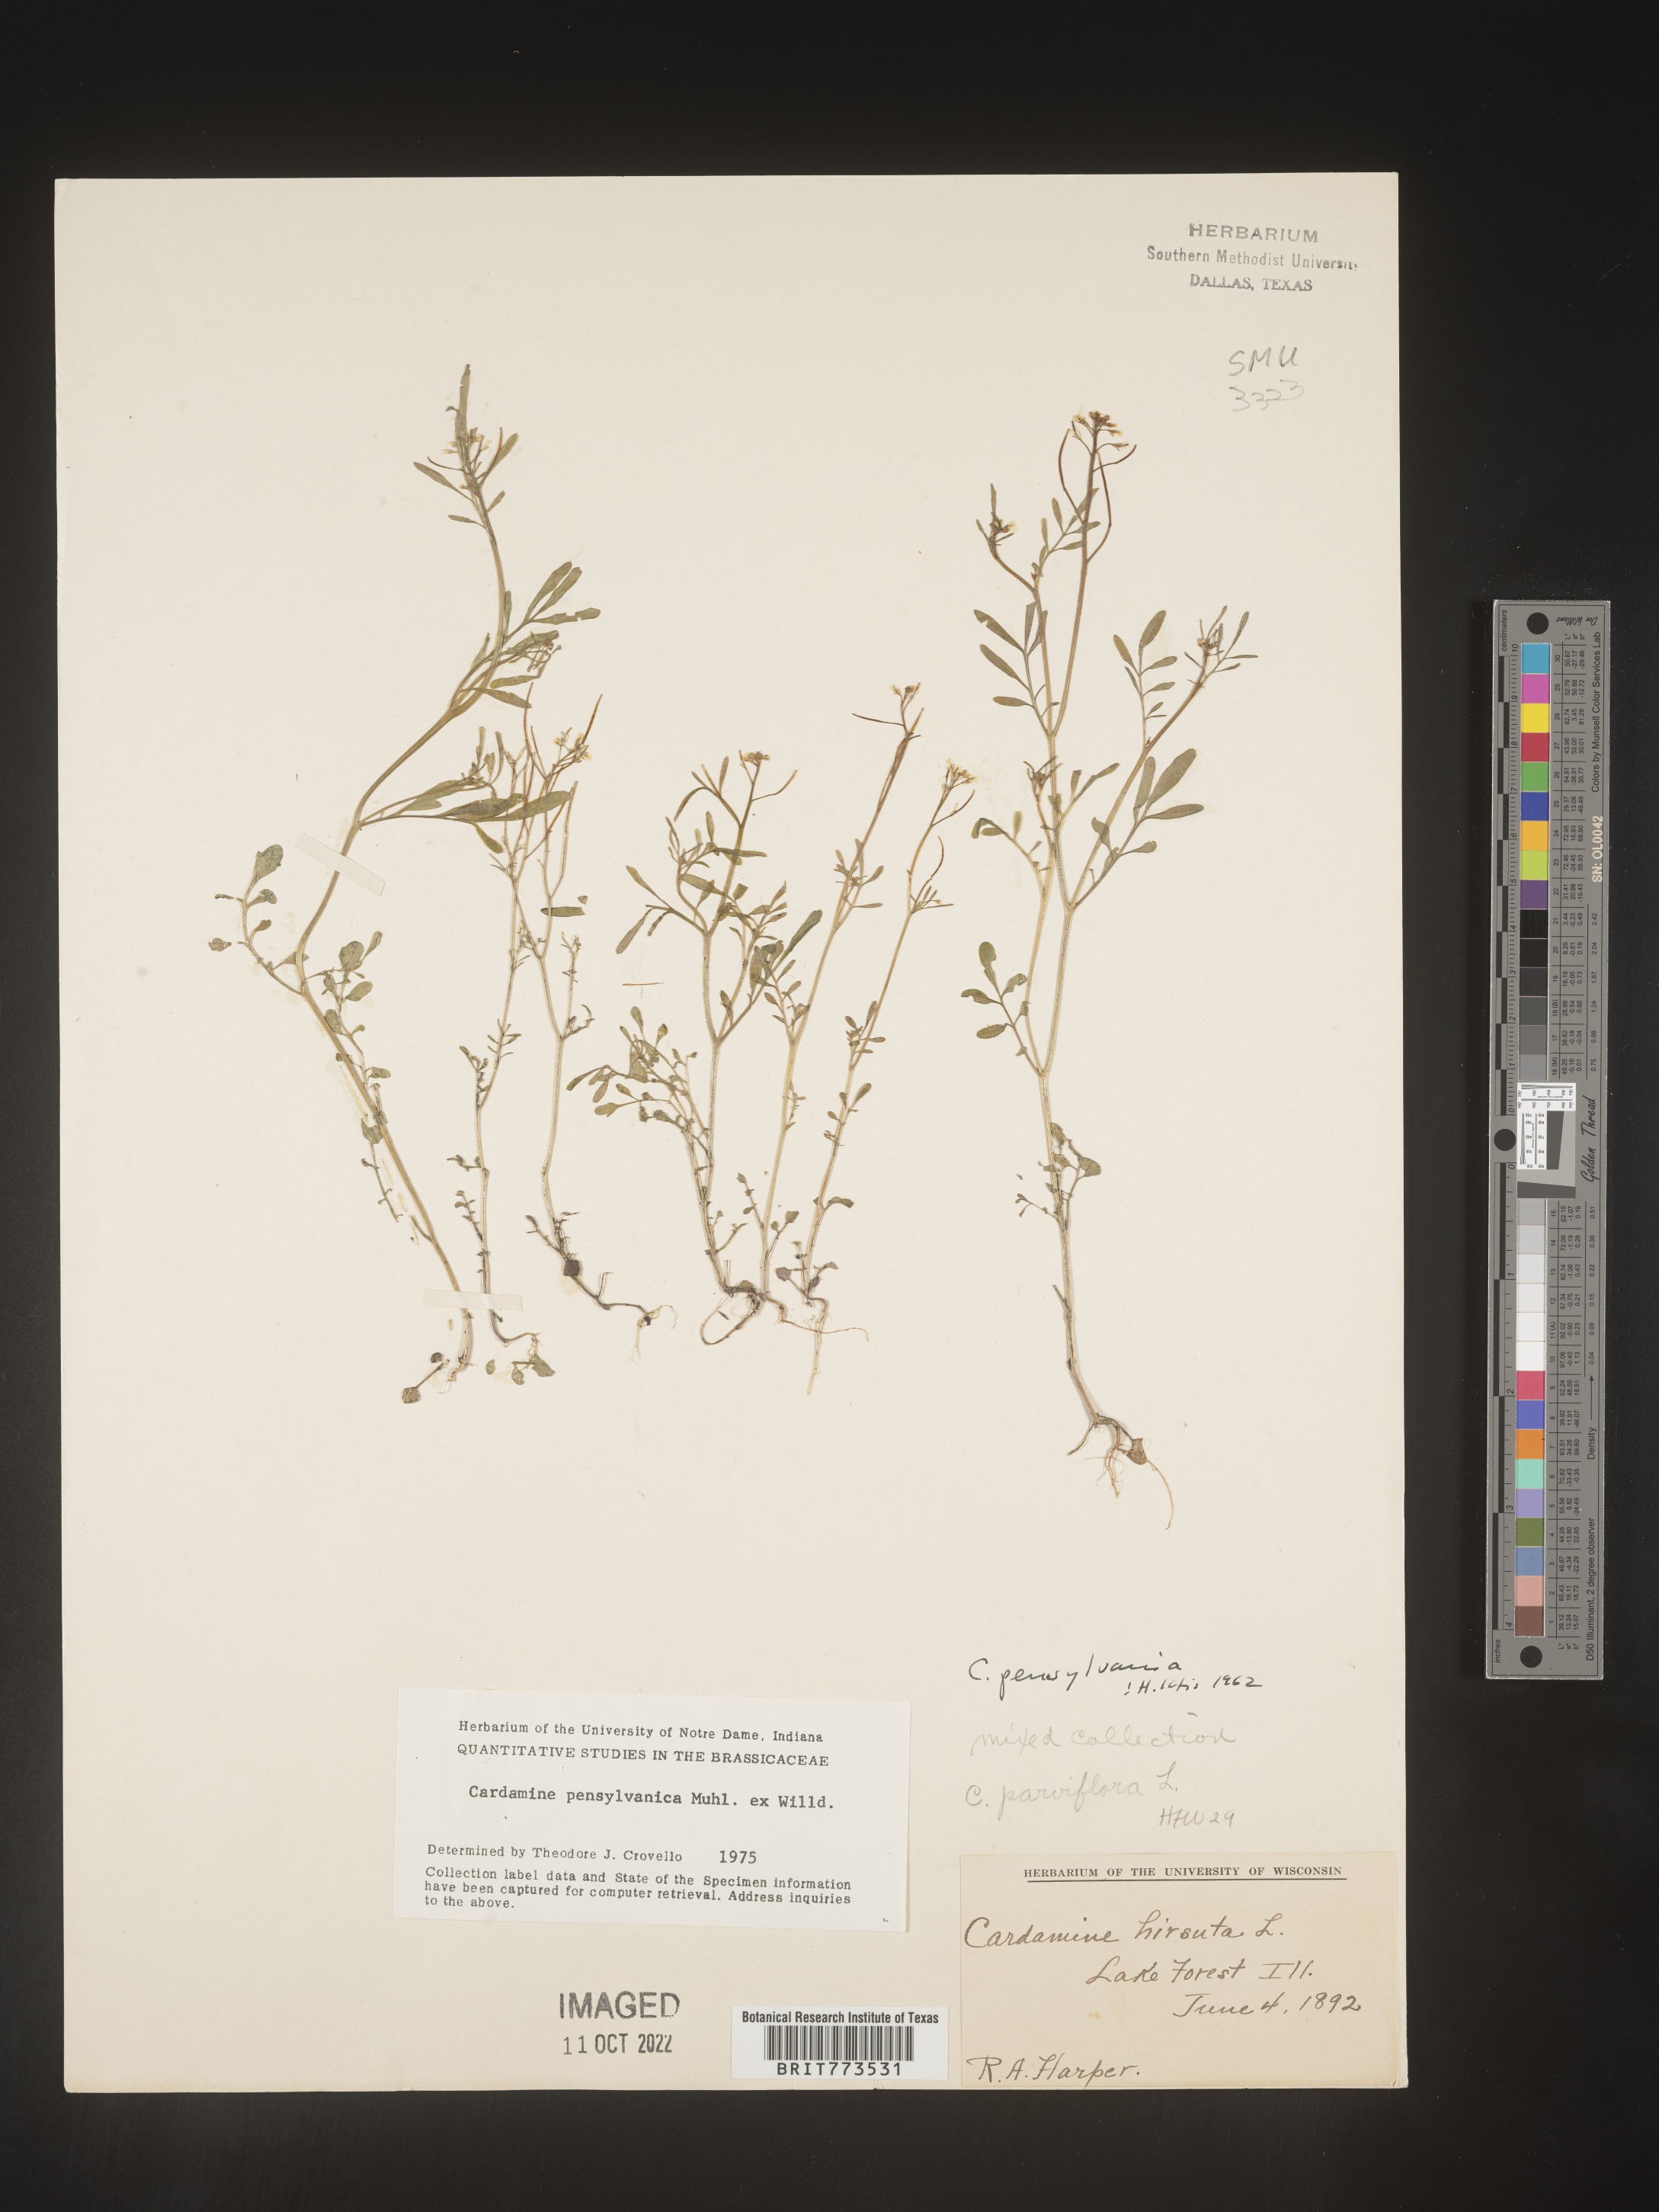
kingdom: Plantae
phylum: Tracheophyta
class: Magnoliopsida
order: Brassicales
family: Brassicaceae
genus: Cardamine
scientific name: Cardamine pensylvanica
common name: Pennsylvania bittercress
